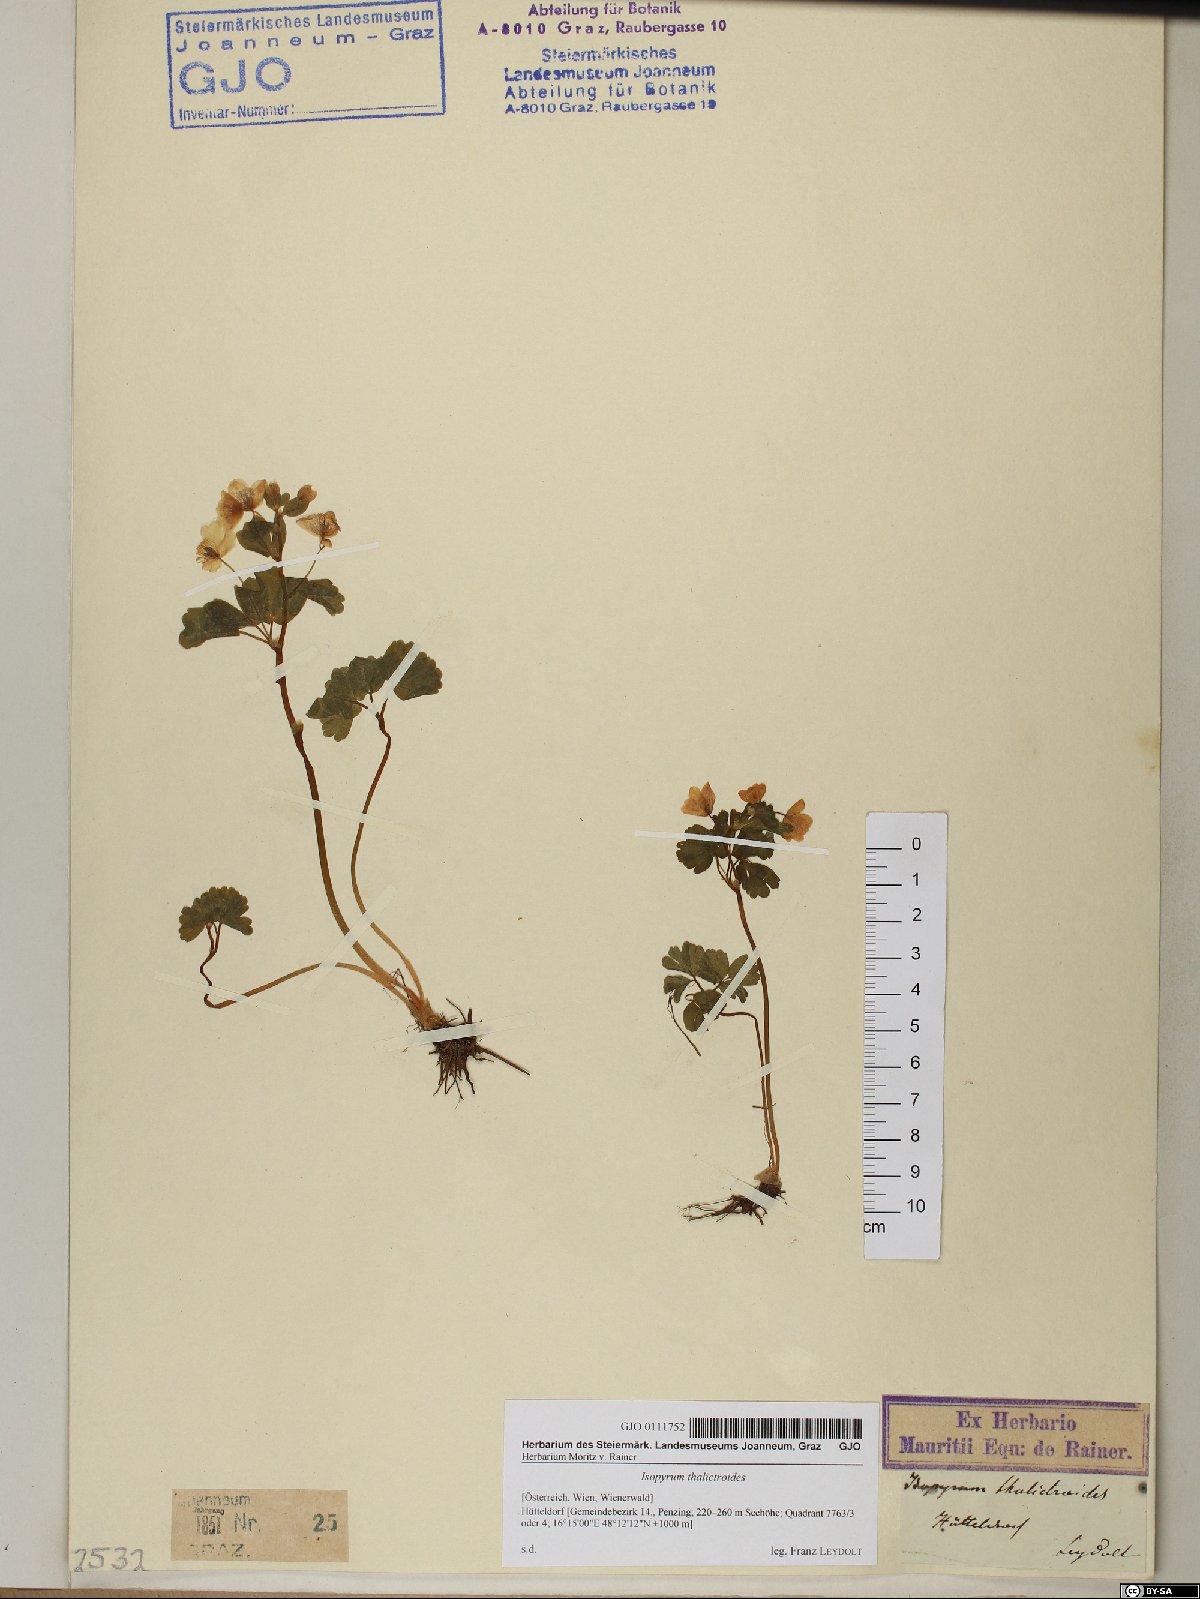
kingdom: Plantae
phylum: Tracheophyta
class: Magnoliopsida
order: Ranunculales
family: Ranunculaceae
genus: Isopyrum
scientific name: Isopyrum thalictroides
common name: Isopyrum
